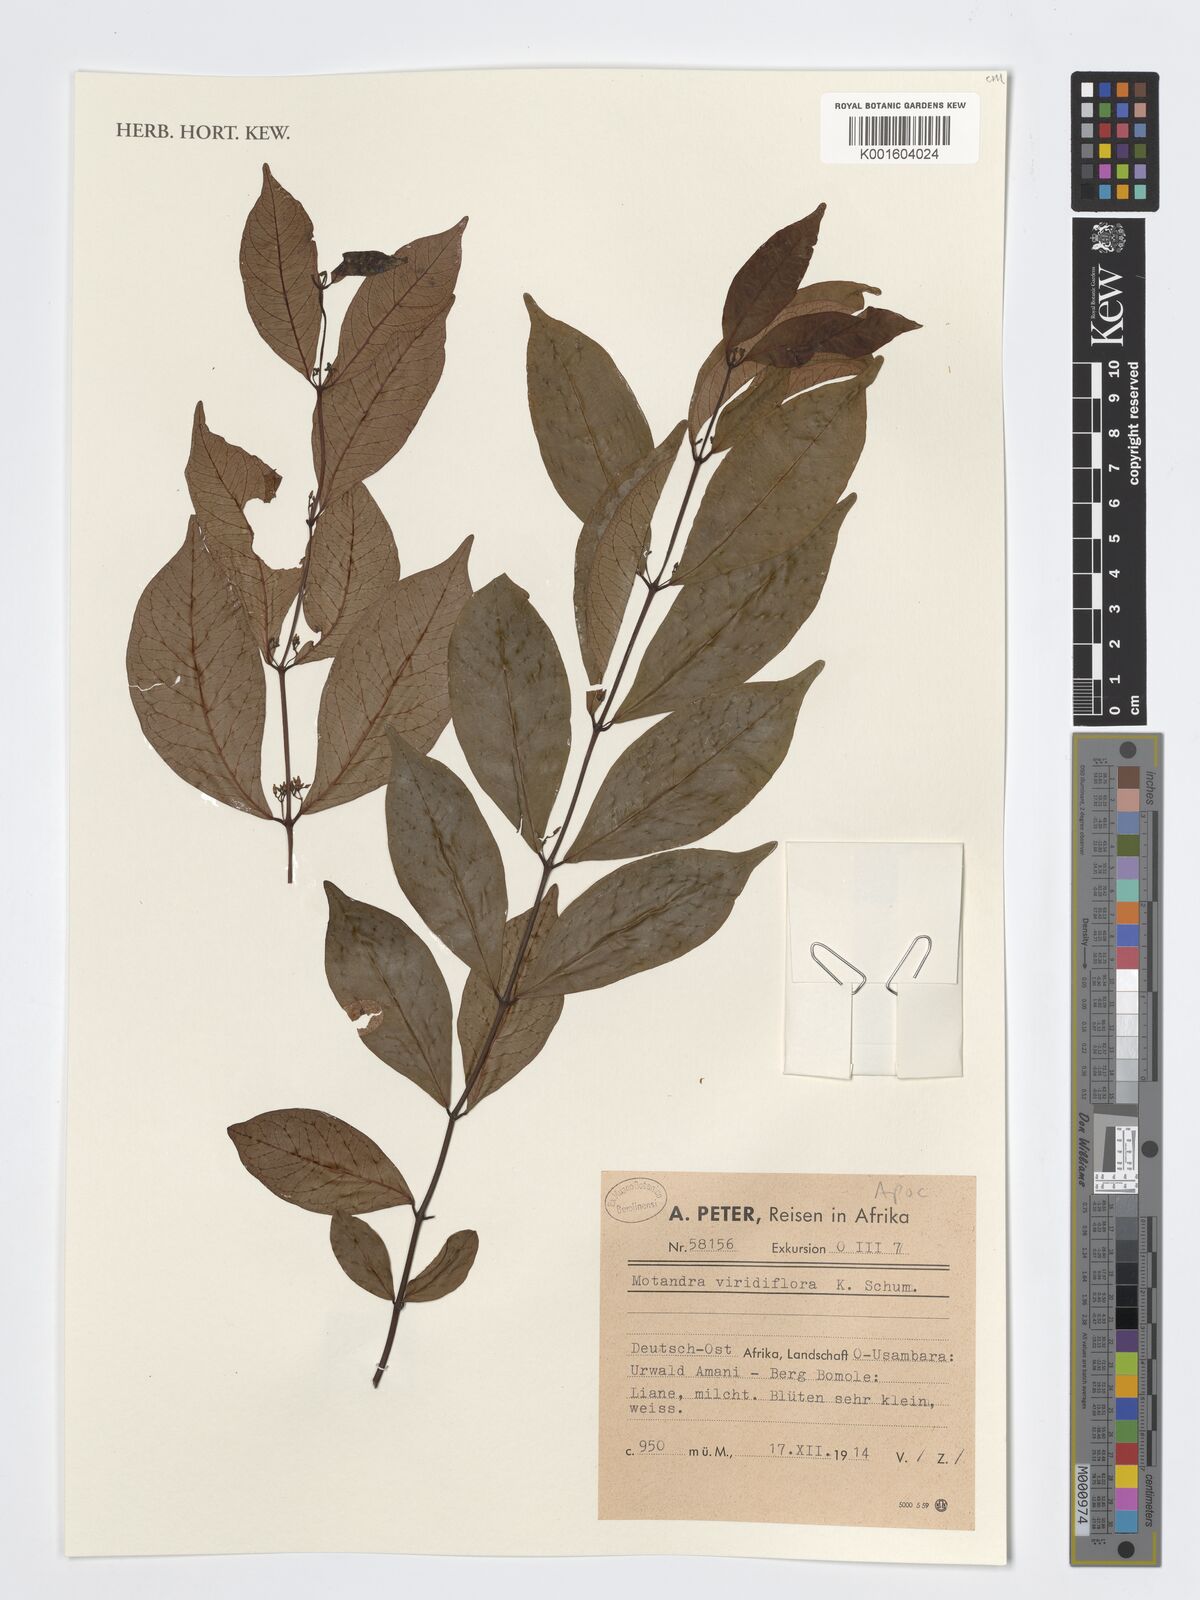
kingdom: Plantae
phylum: Tracheophyta
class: Magnoliopsida
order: Gentianales
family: Apocynaceae
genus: Baissea
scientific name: Baissea viridiflora
